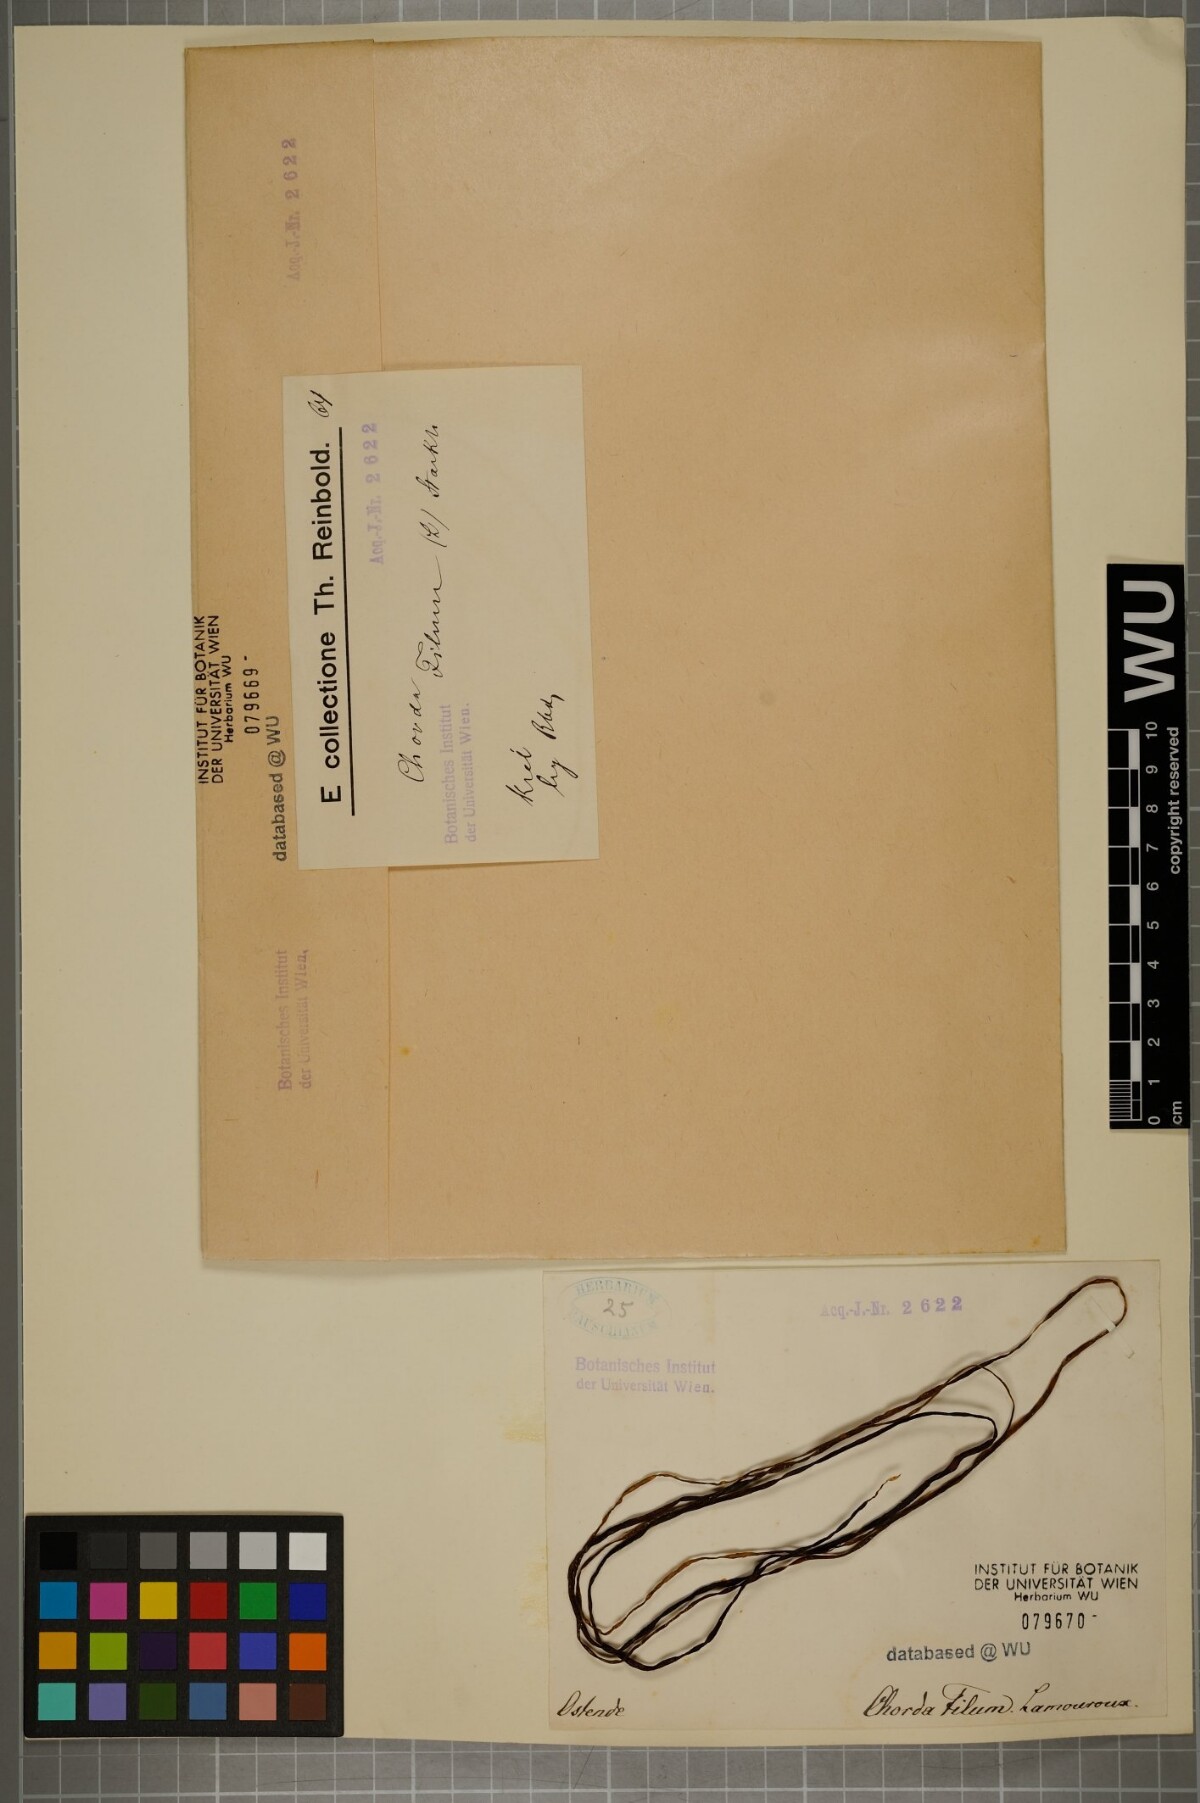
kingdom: Chromista
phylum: Ochrophyta
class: Phaeophyceae
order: Laminariales
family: Chordaceae
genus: Chorda
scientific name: Chorda filum
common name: Mermaid's tresses
